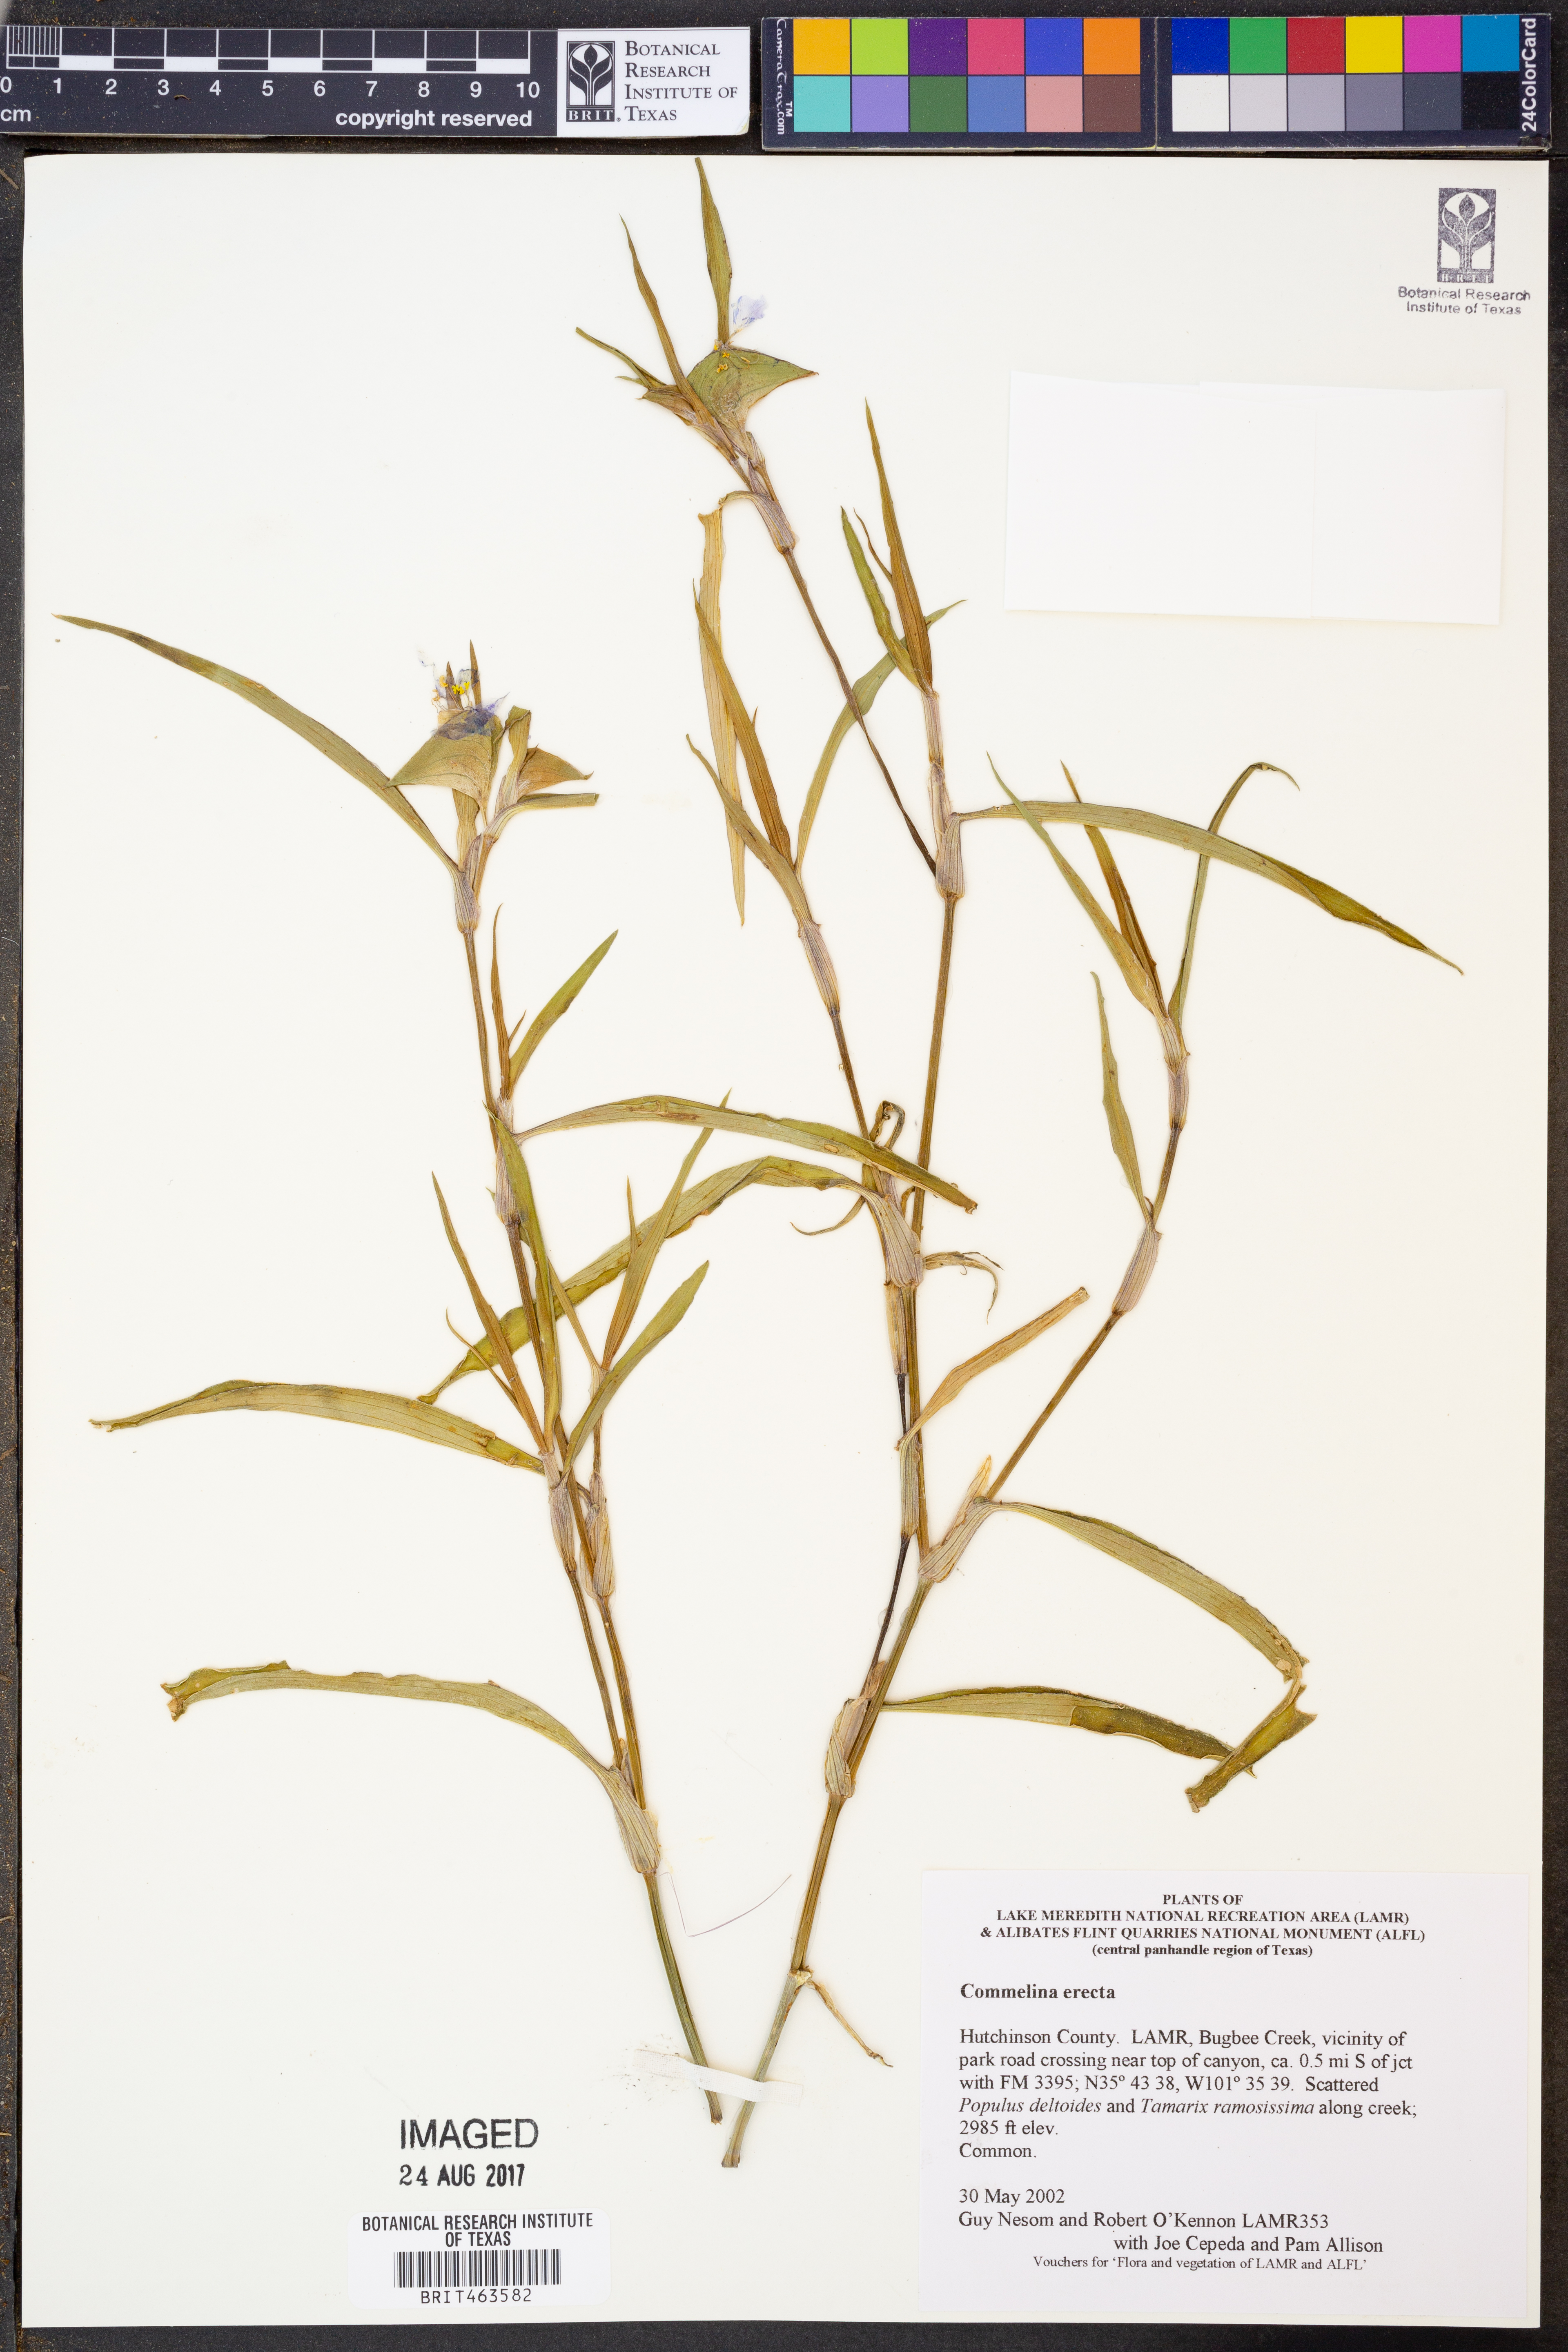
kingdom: Plantae
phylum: Tracheophyta
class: Liliopsida
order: Commelinales
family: Commelinaceae
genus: Commelina
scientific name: Commelina erecta
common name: Blousel blommetjie
